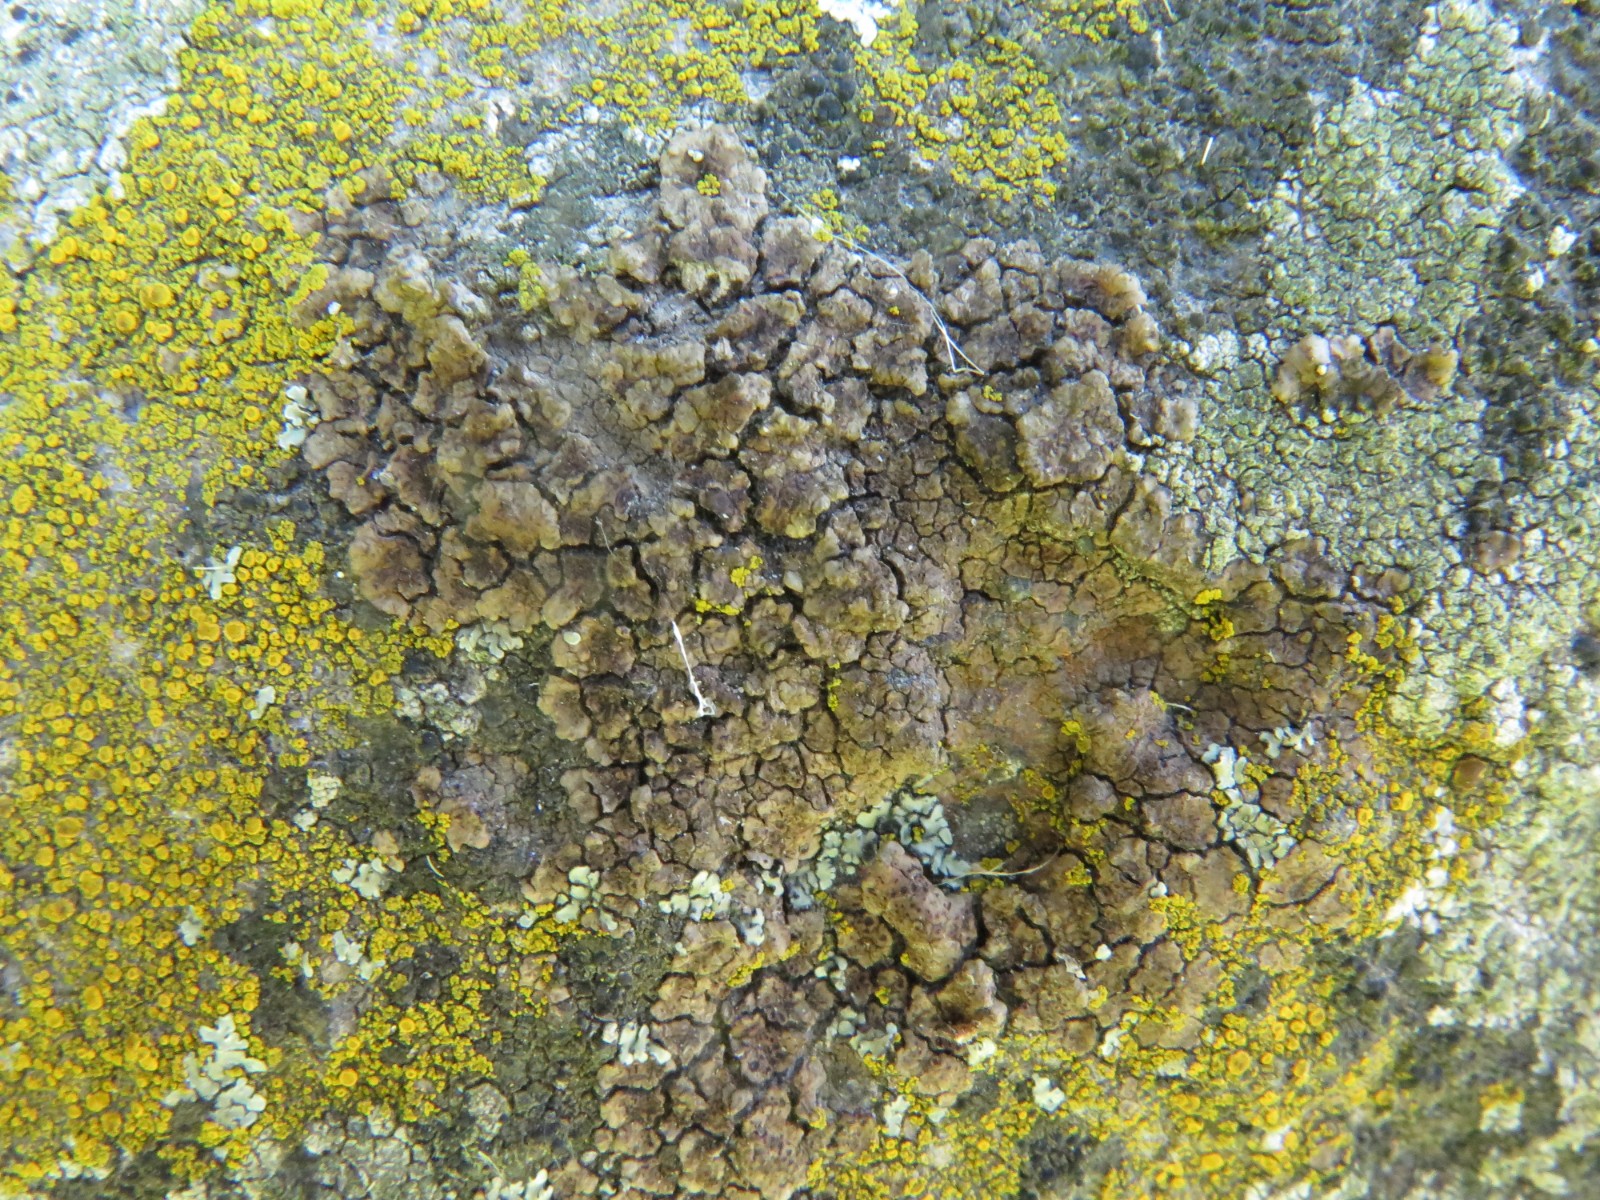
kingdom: Fungi
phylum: Ascomycota
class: Lecanoromycetes
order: Acarosporales
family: Acarosporaceae
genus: Acarospora
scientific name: Acarospora fuscata
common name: brun småsporelav
